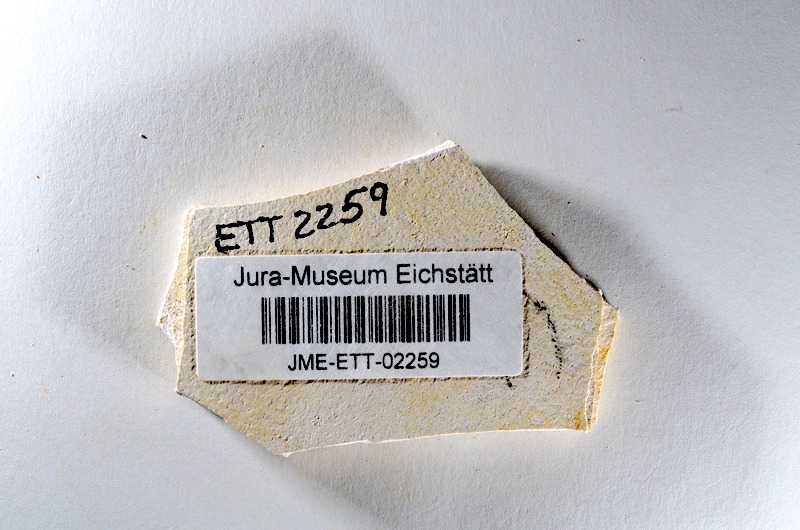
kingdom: Animalia
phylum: Chordata
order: Salmoniformes
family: Orthogonikleithridae
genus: Orthogonikleithrus
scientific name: Orthogonikleithrus hoelli
